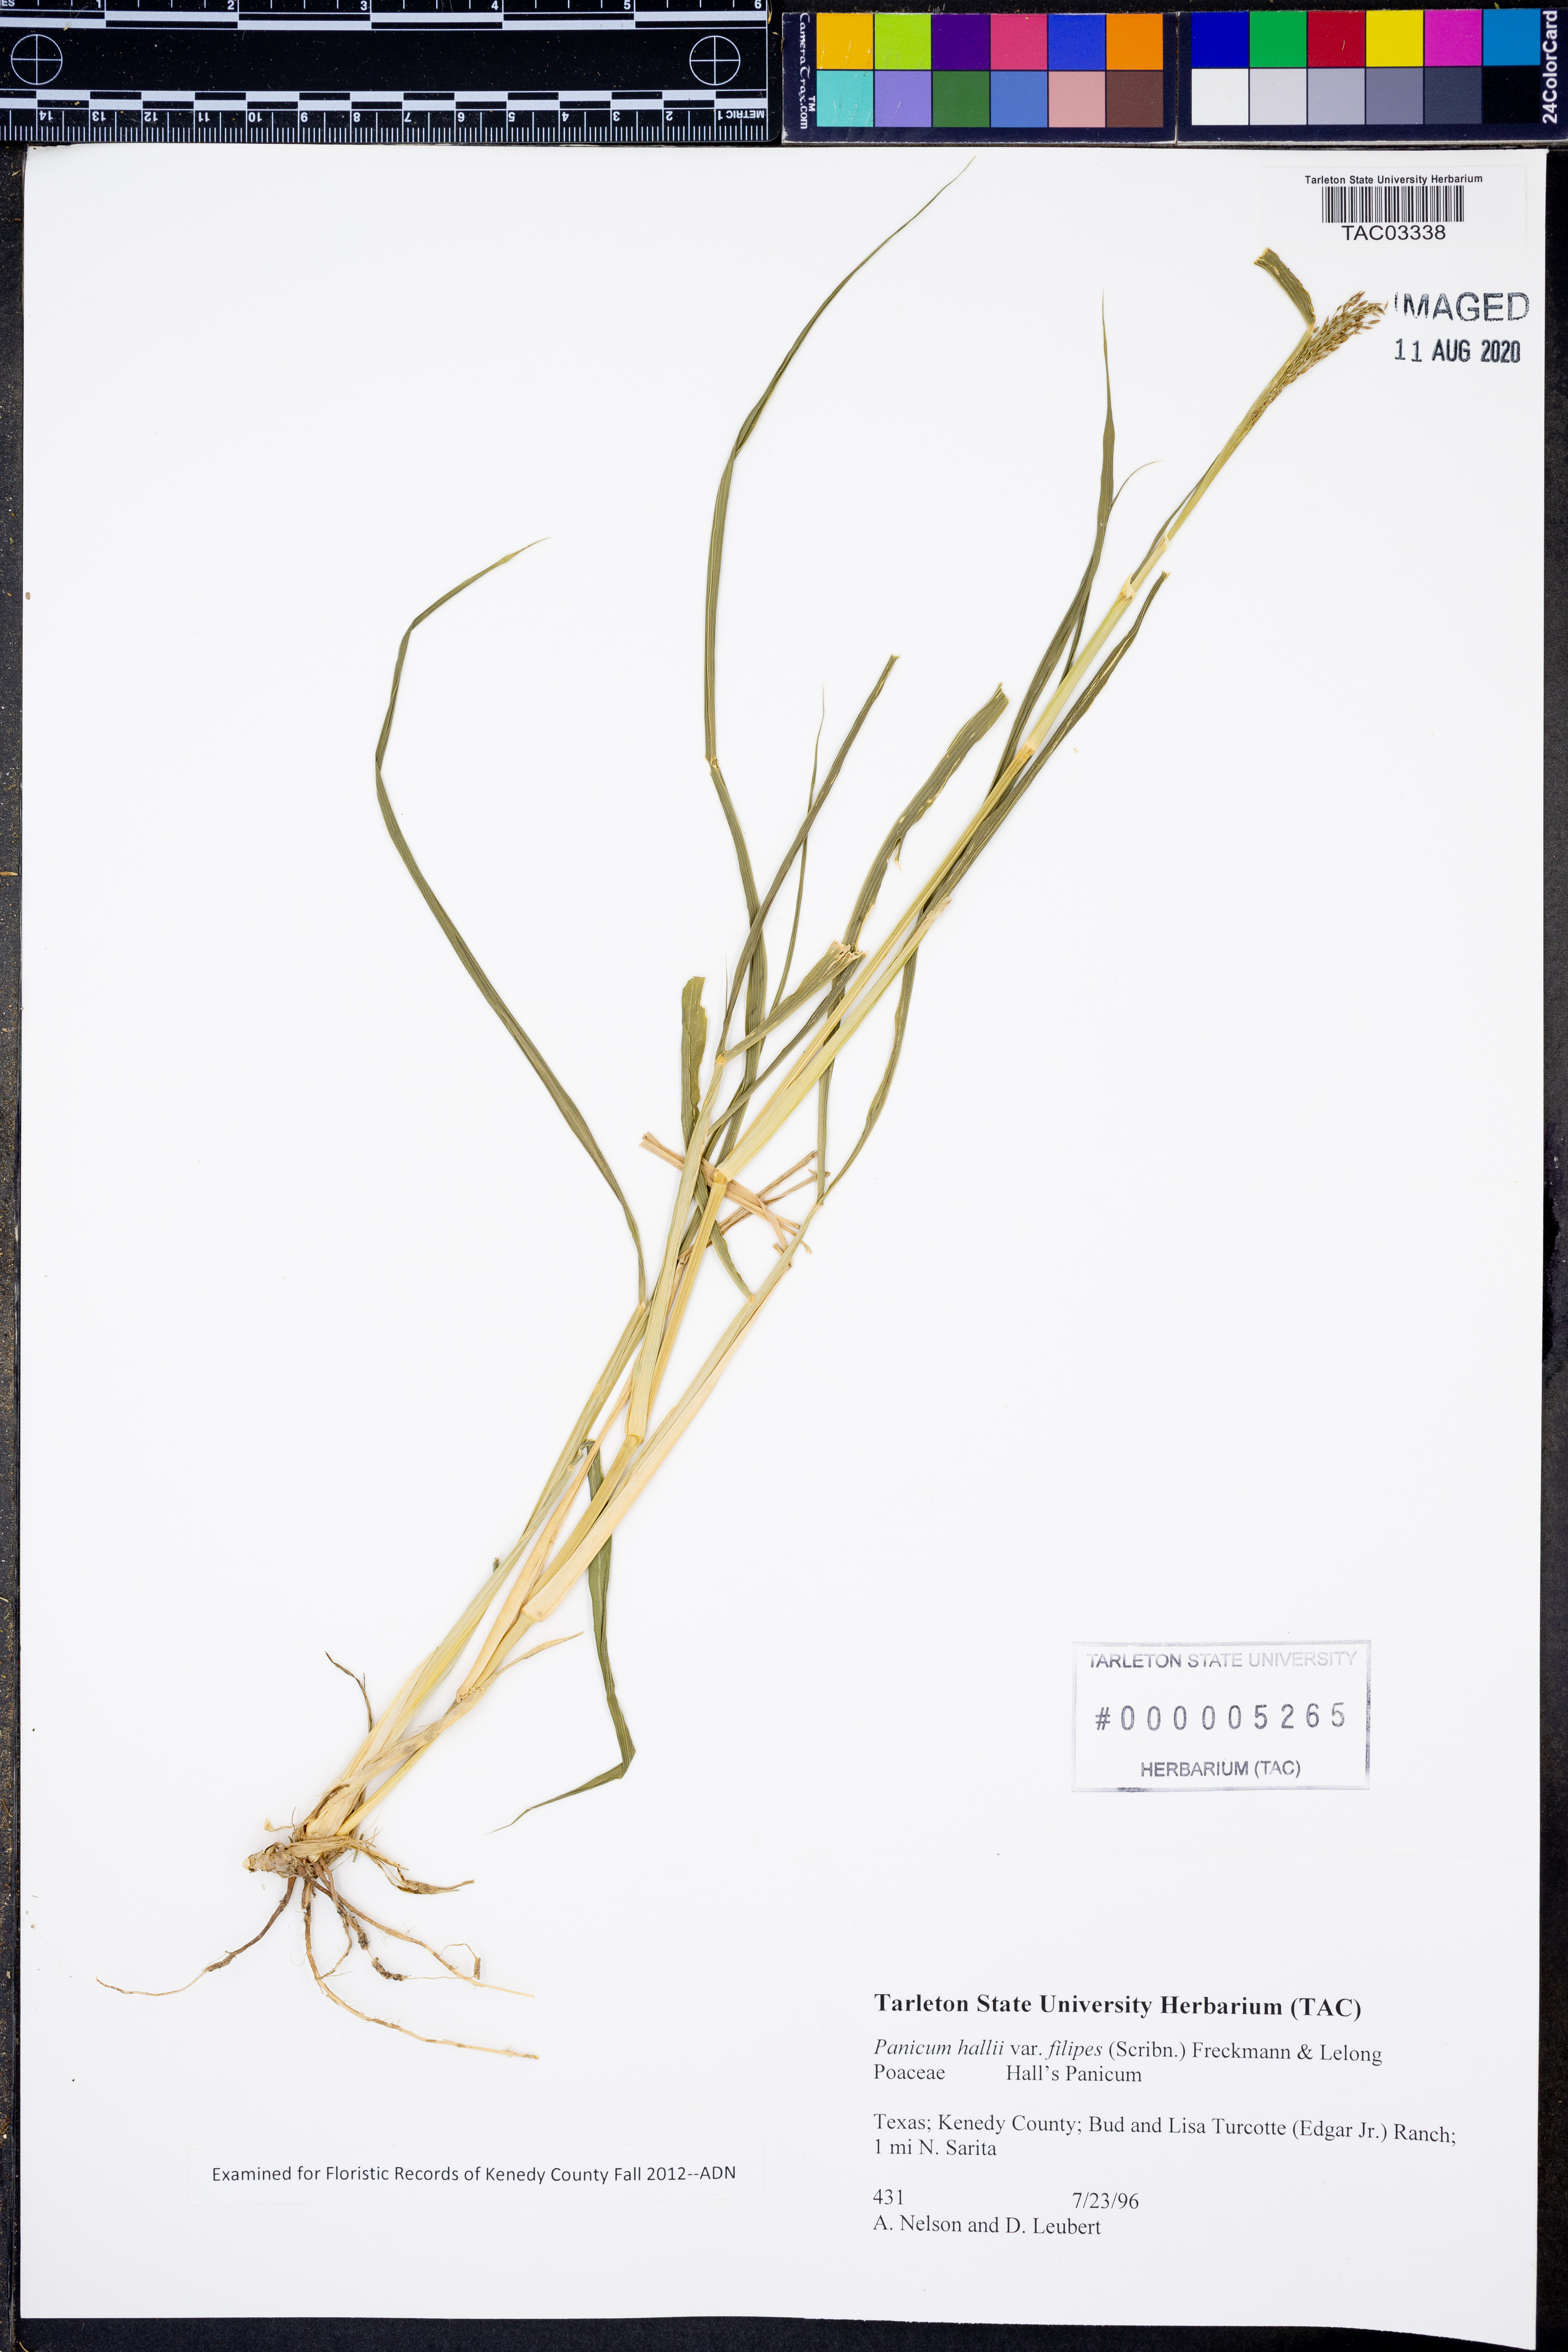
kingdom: Plantae
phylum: Tracheophyta
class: Liliopsida
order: Poales
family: Poaceae
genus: Panicum
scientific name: Panicum hallii
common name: Hall's witchgrass
